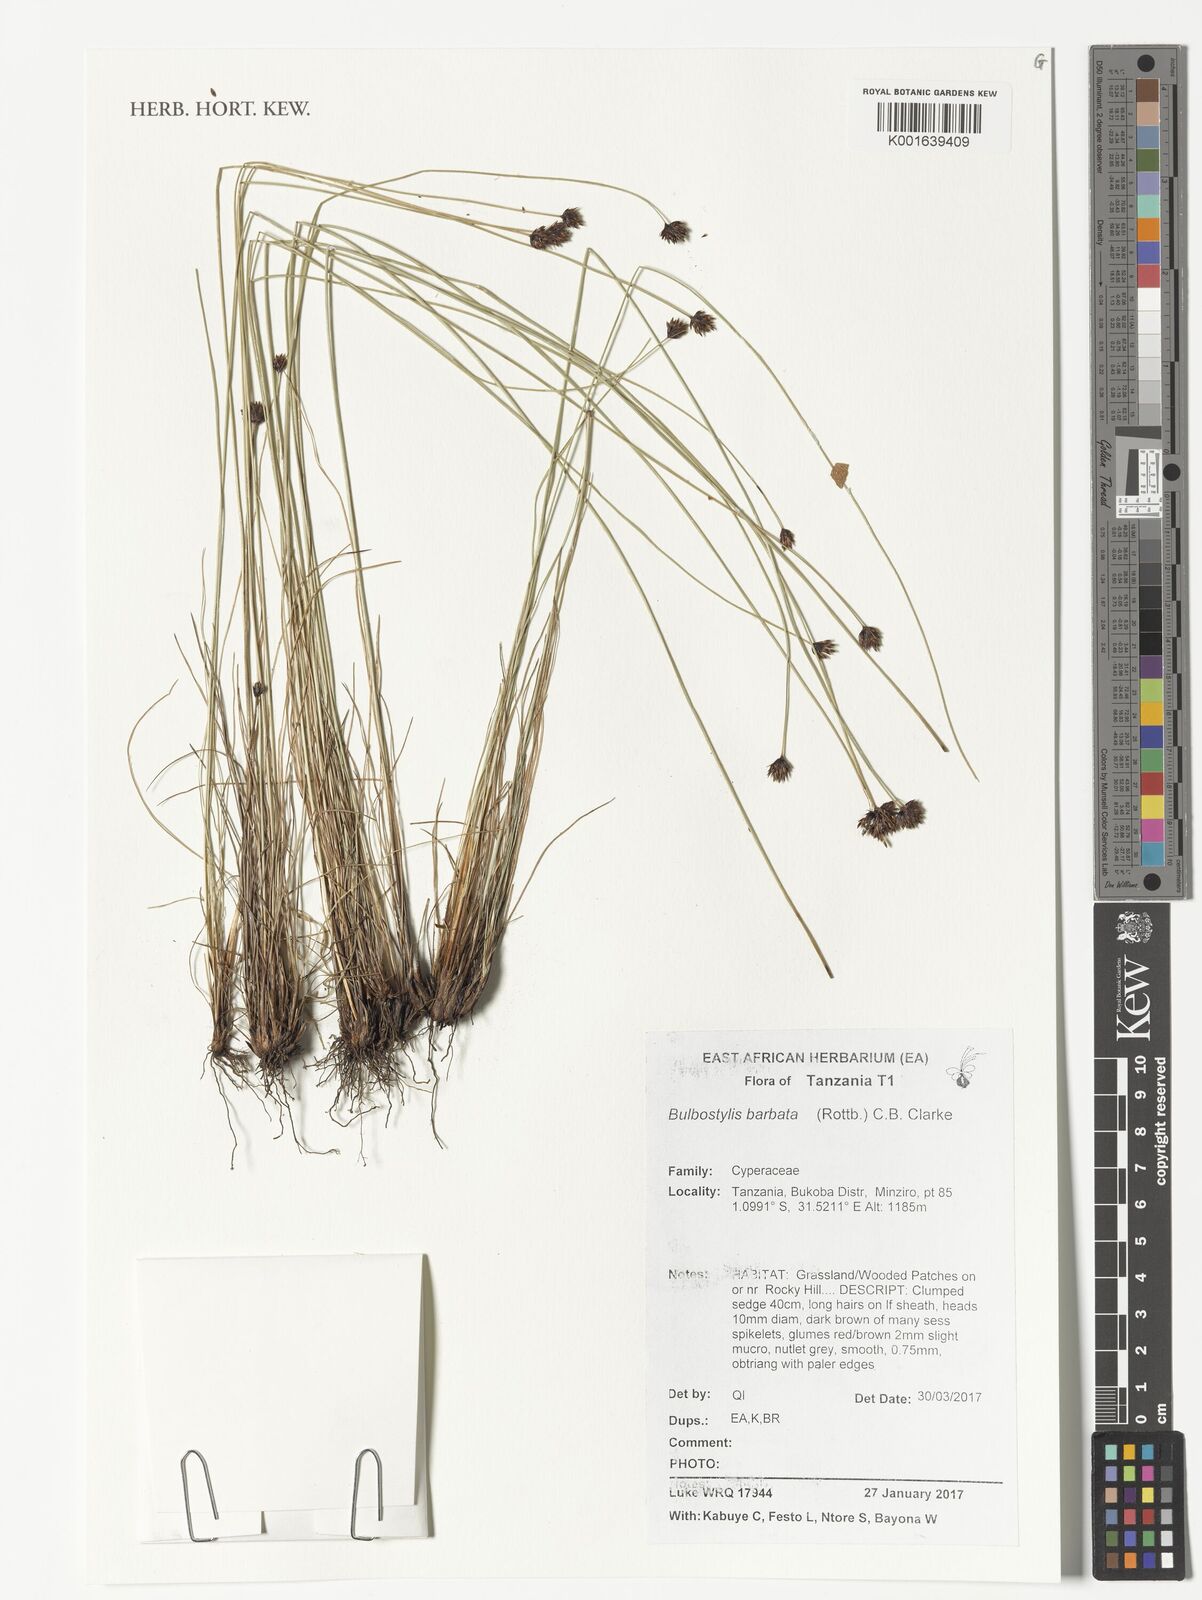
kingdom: Plantae
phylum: Tracheophyta
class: Liliopsida
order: Poales
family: Cyperaceae
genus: Bulbostylis
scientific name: Bulbostylis barbata
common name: Watergrass
